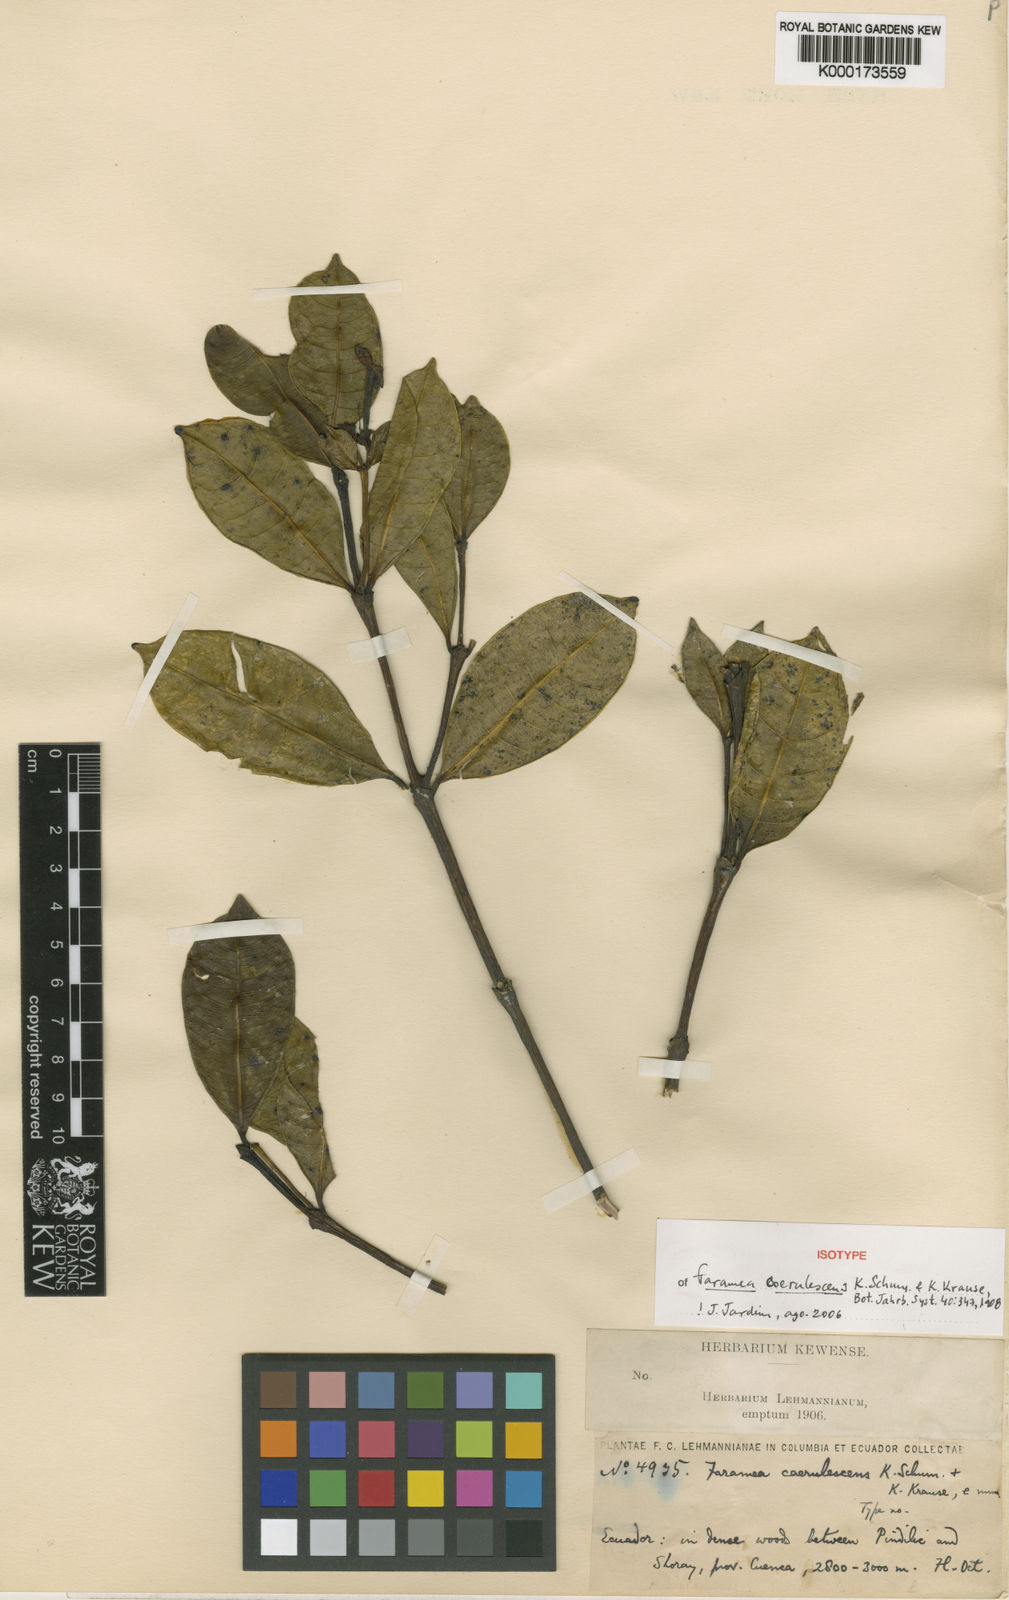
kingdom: Plantae
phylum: Tracheophyta
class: Magnoliopsida
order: Gentianales
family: Rubiaceae
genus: Faramea
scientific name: Faramea coerulescens
